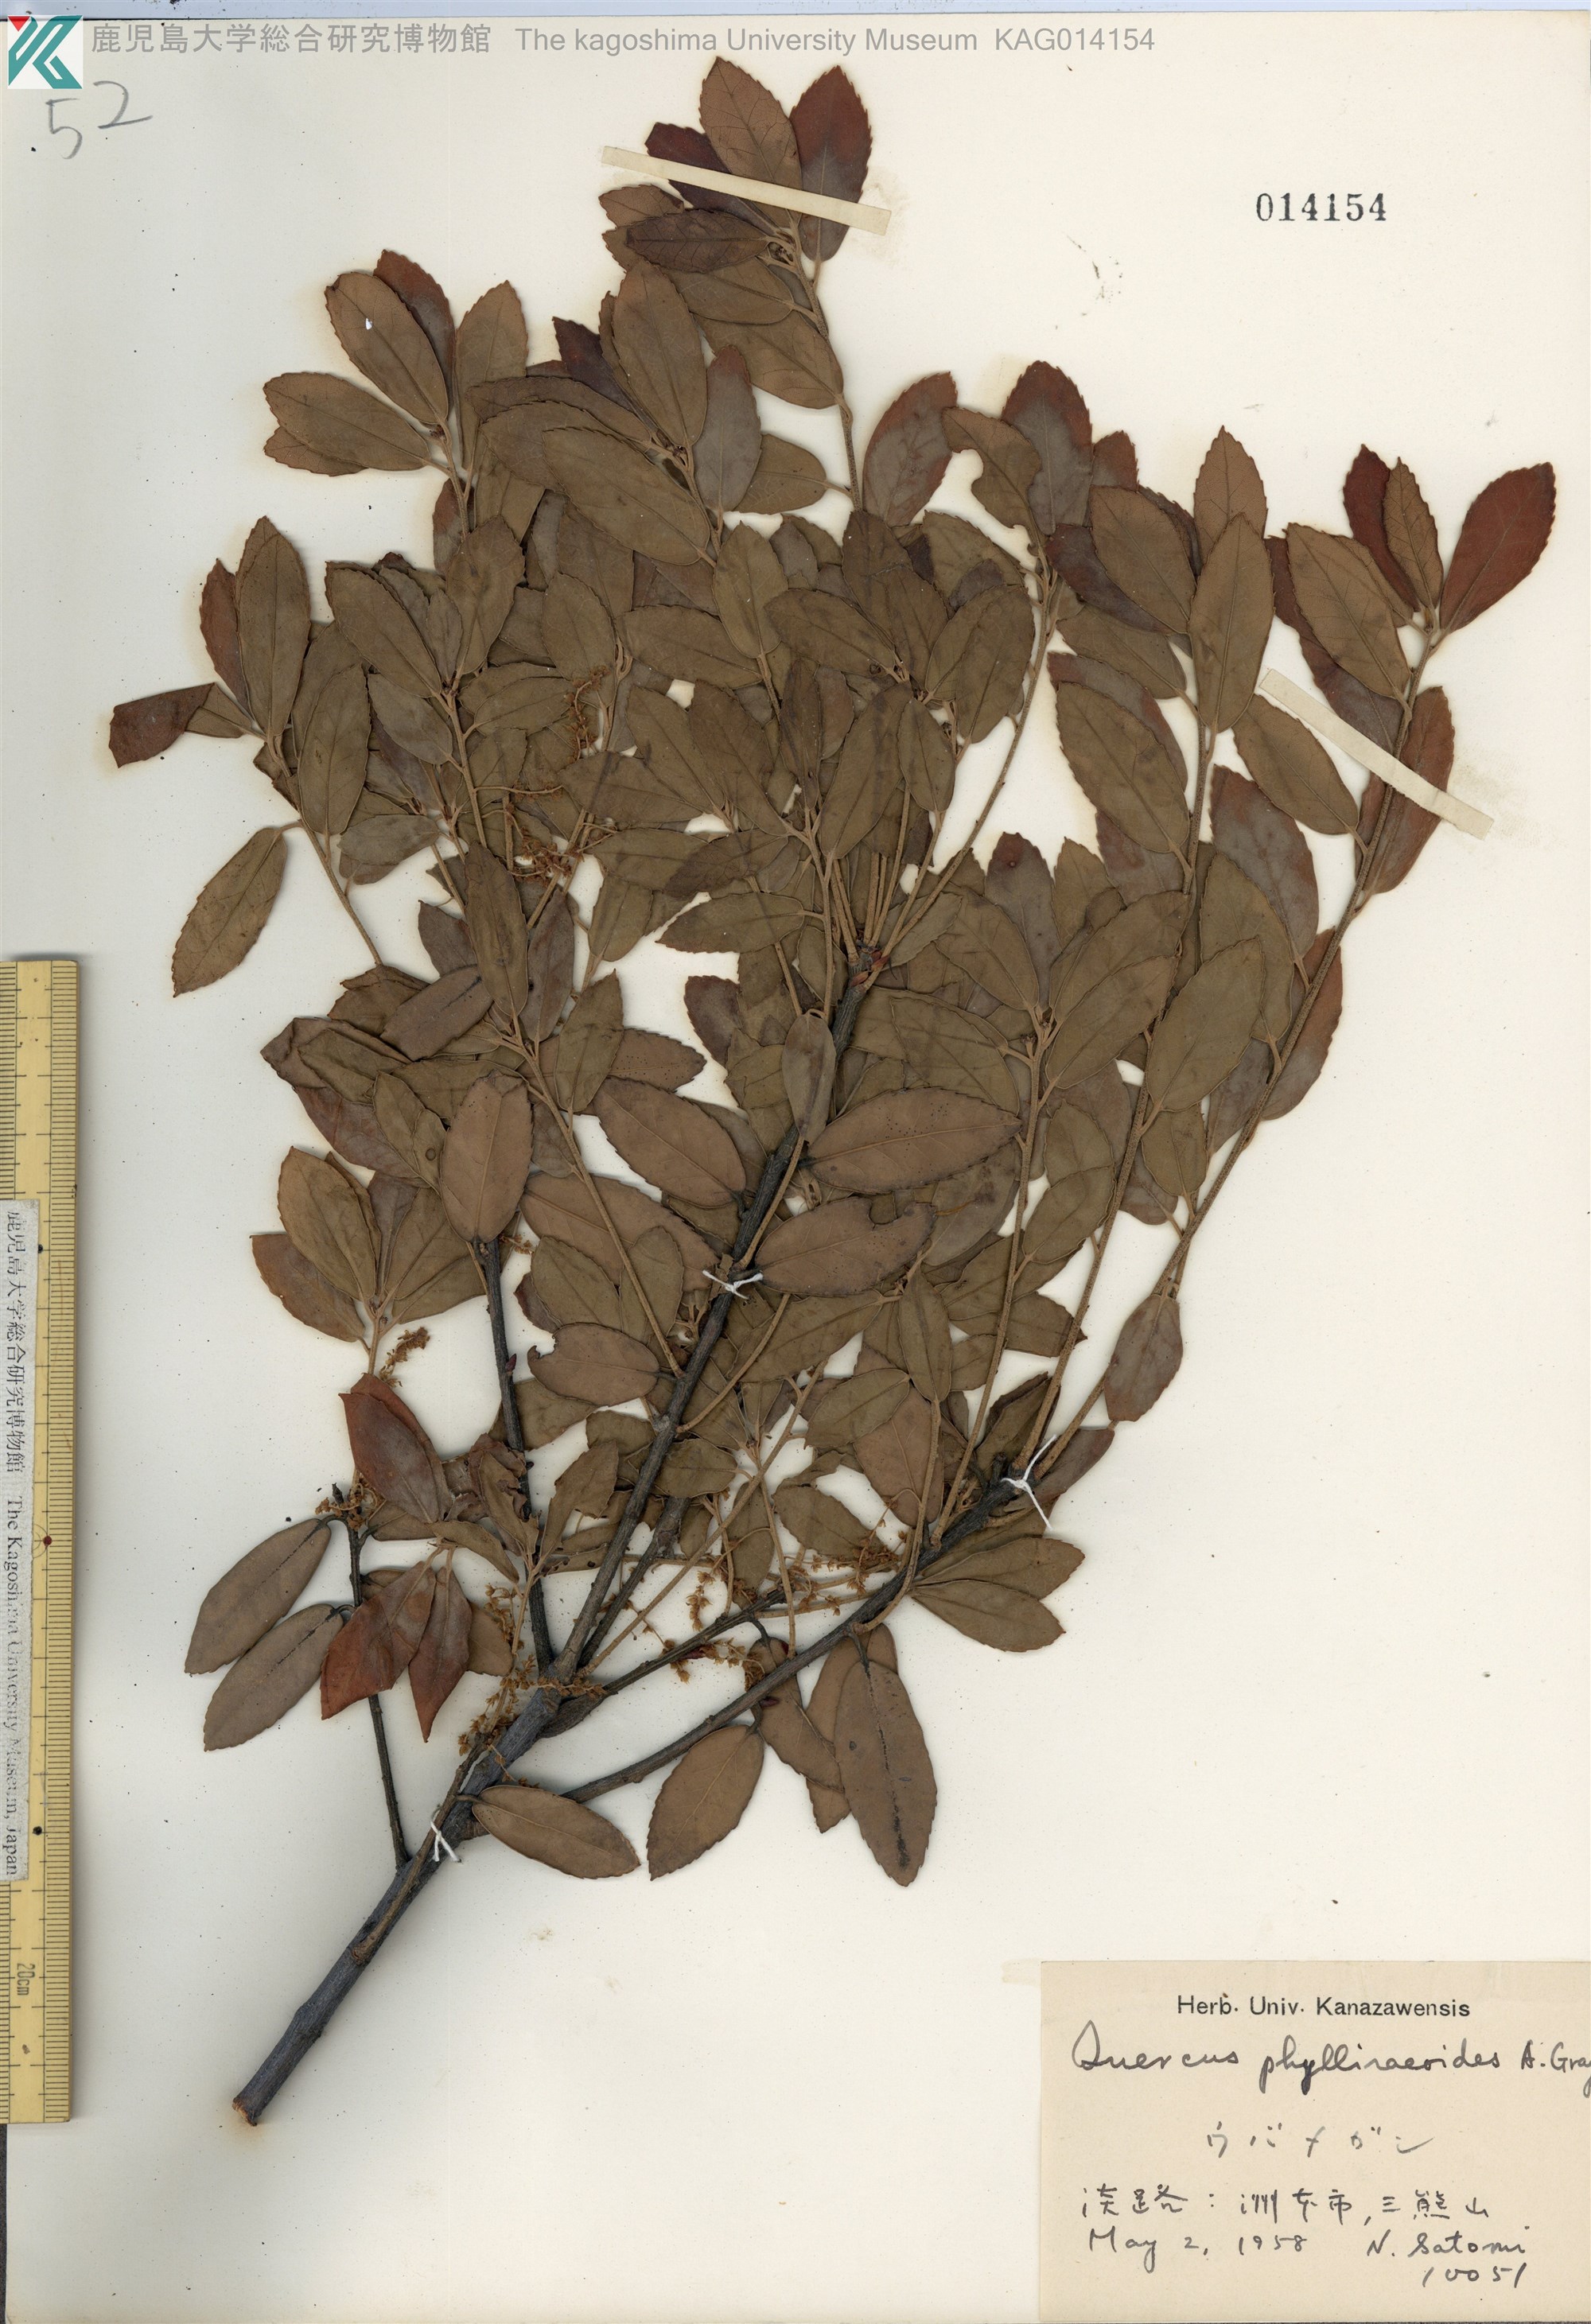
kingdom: Plantae
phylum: Tracheophyta
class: Magnoliopsida
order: Fagales
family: Fagaceae
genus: Quercus
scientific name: Quercus phillyraeoides
